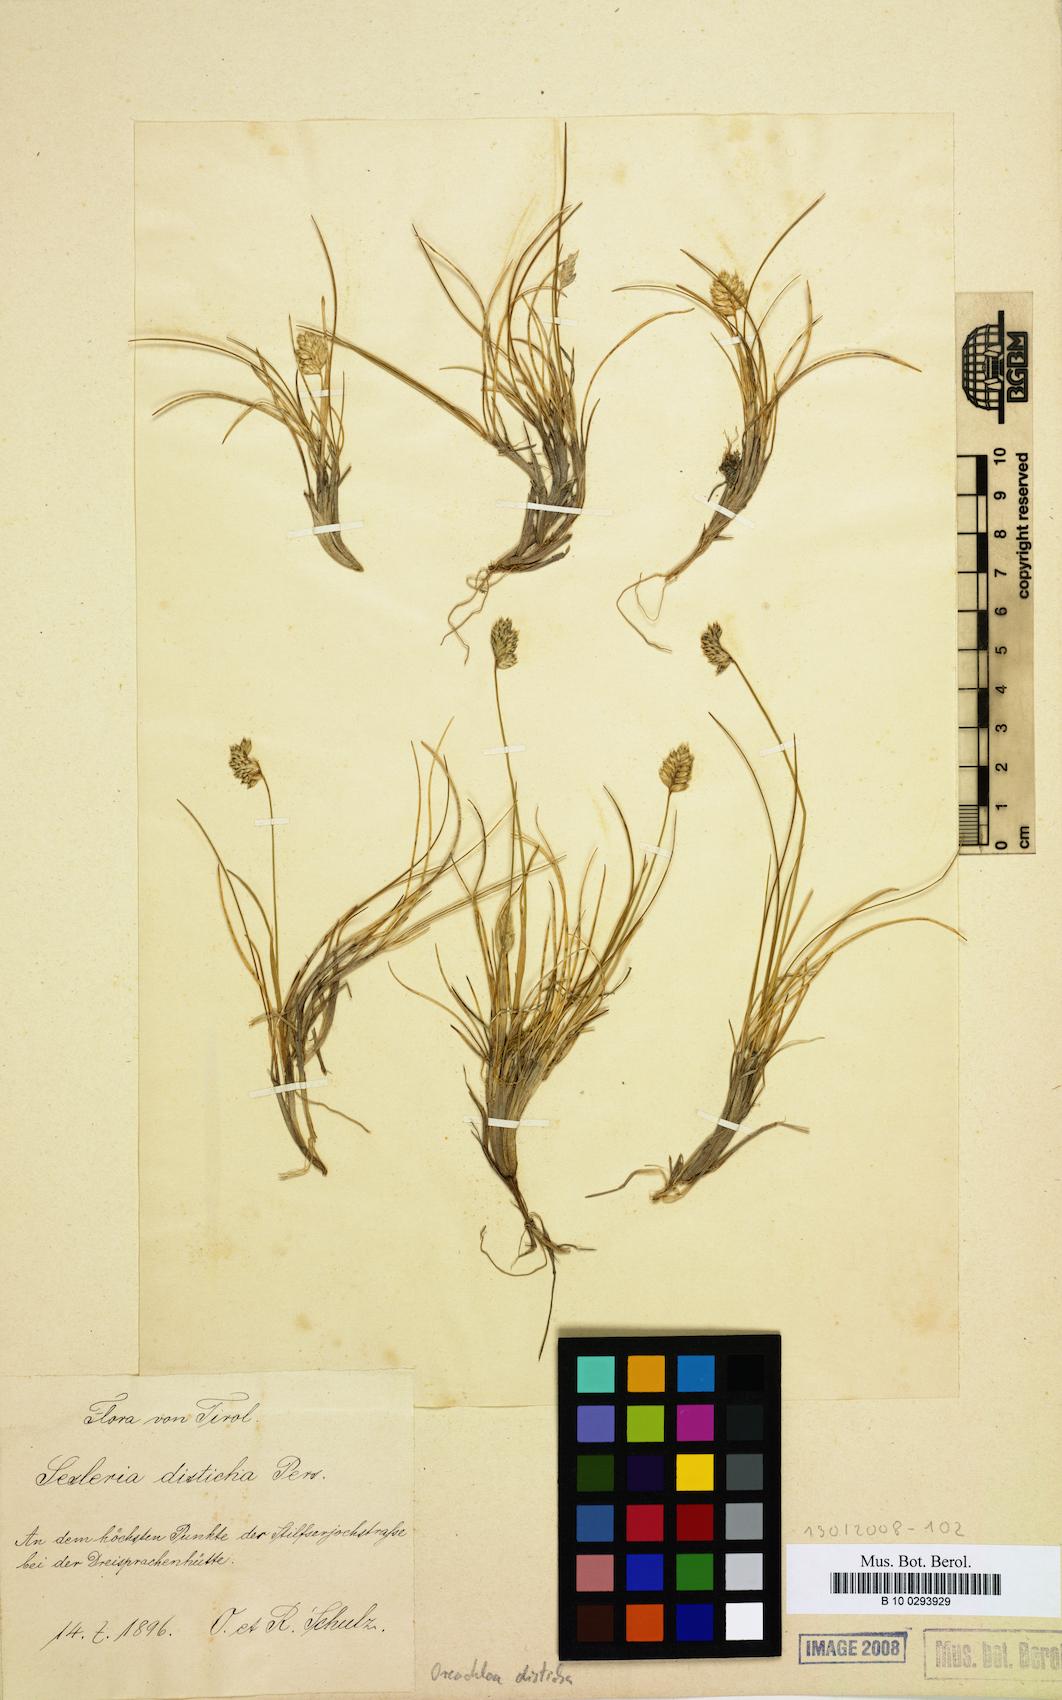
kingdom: Plantae
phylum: Tracheophyta
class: Liliopsida
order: Poales
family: Poaceae
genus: Oreochloa
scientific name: Oreochloa disticha
